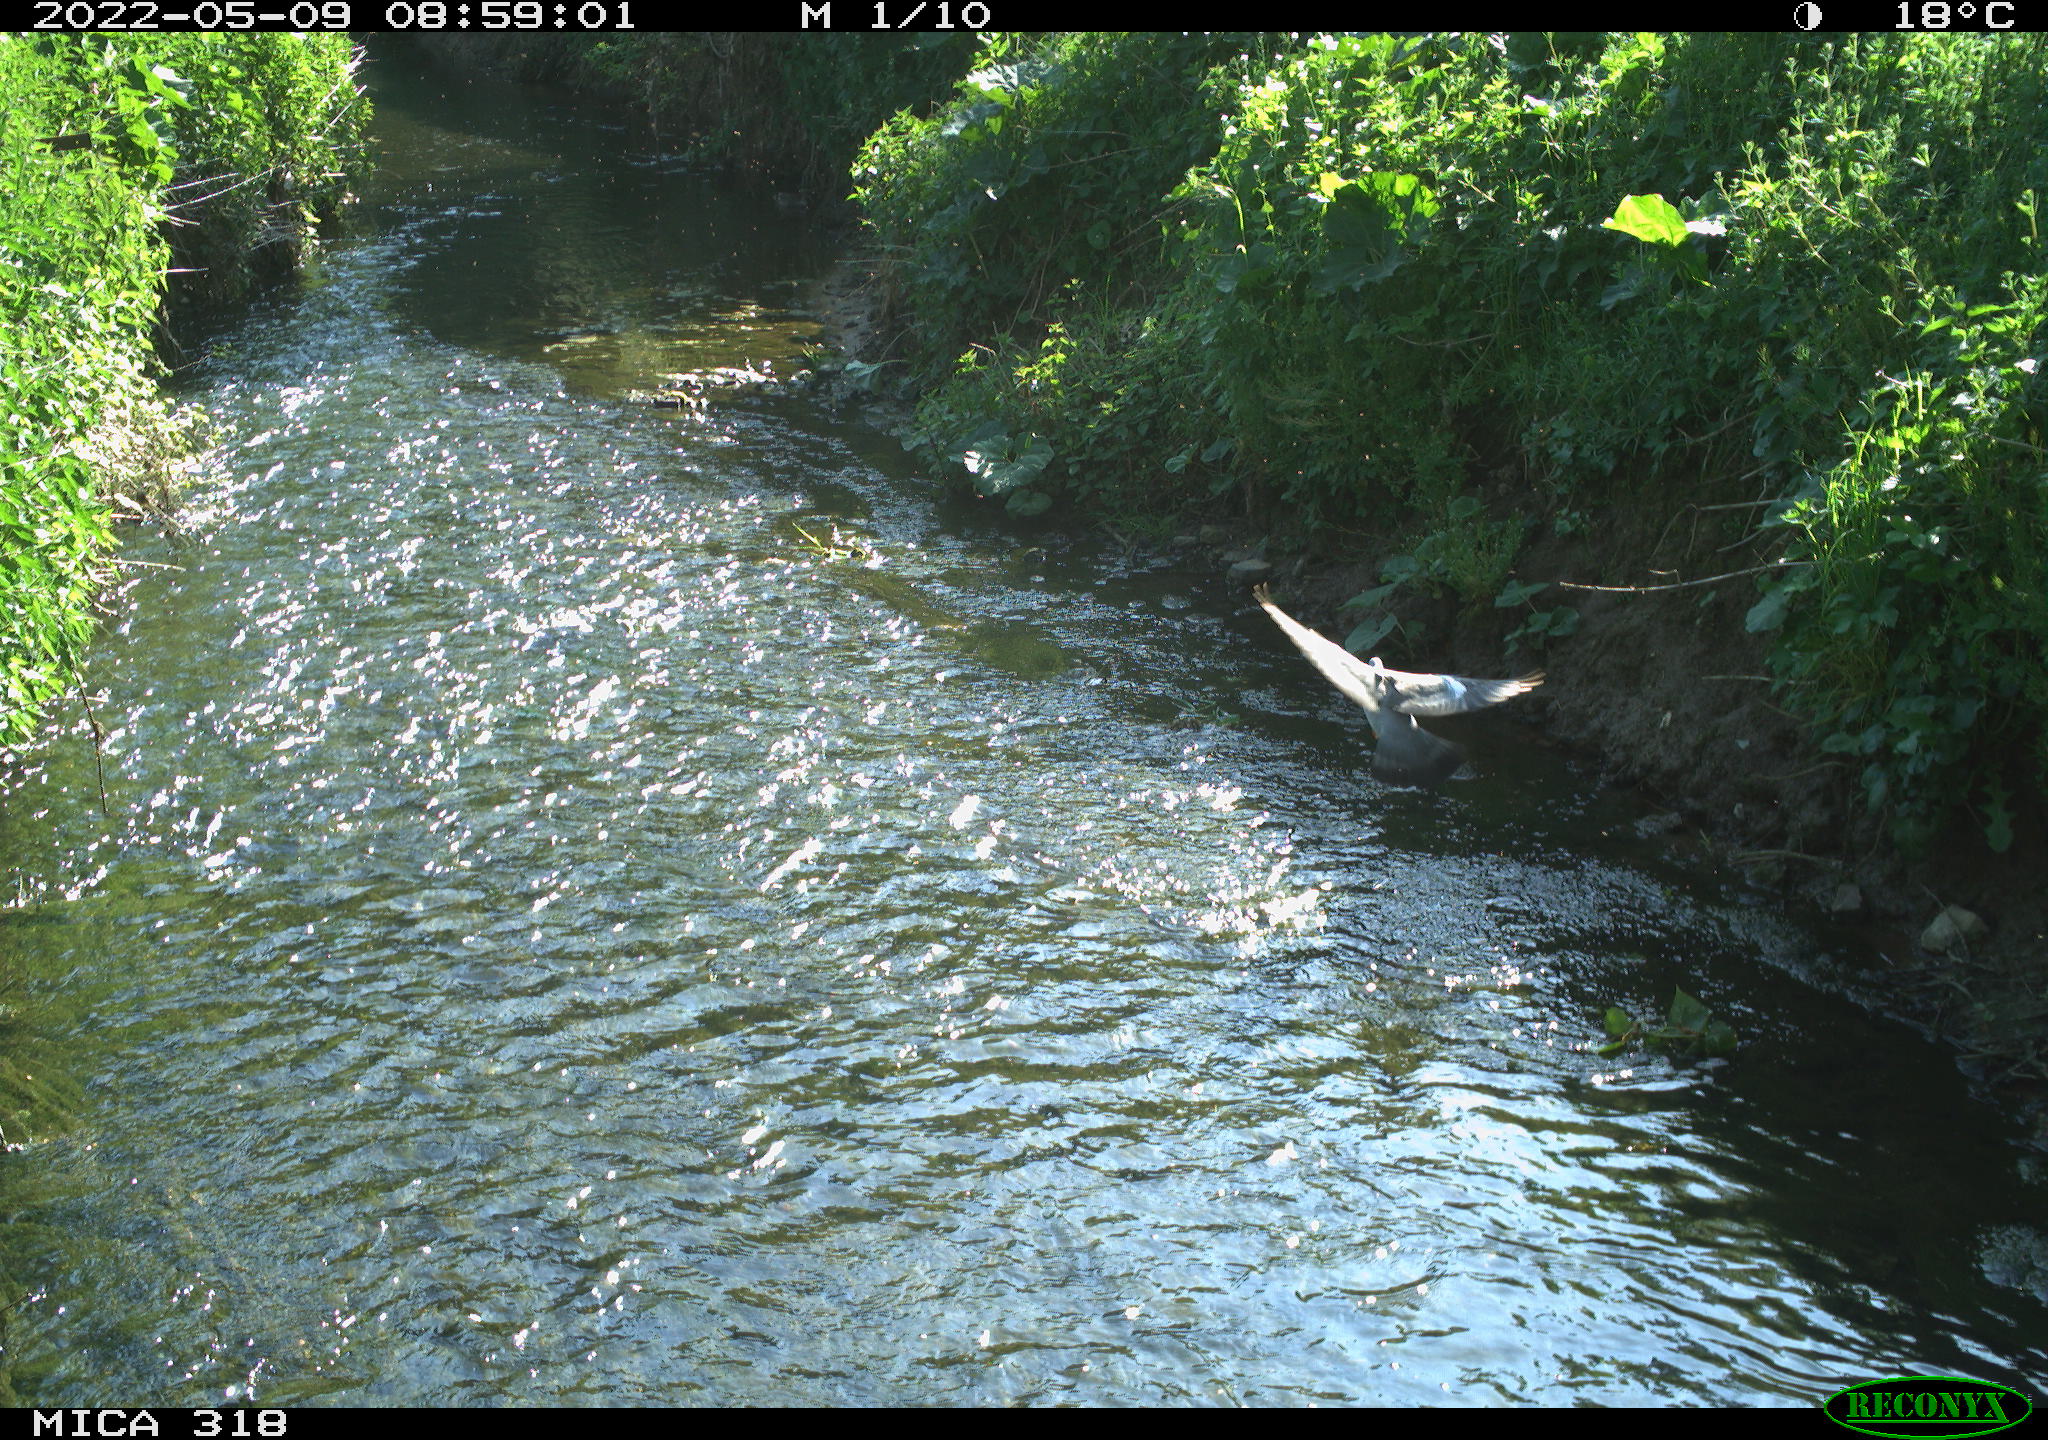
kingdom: Animalia
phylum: Chordata
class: Aves
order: Columbiformes
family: Columbidae
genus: Columba
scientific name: Columba palumbus
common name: Common wood pigeon
